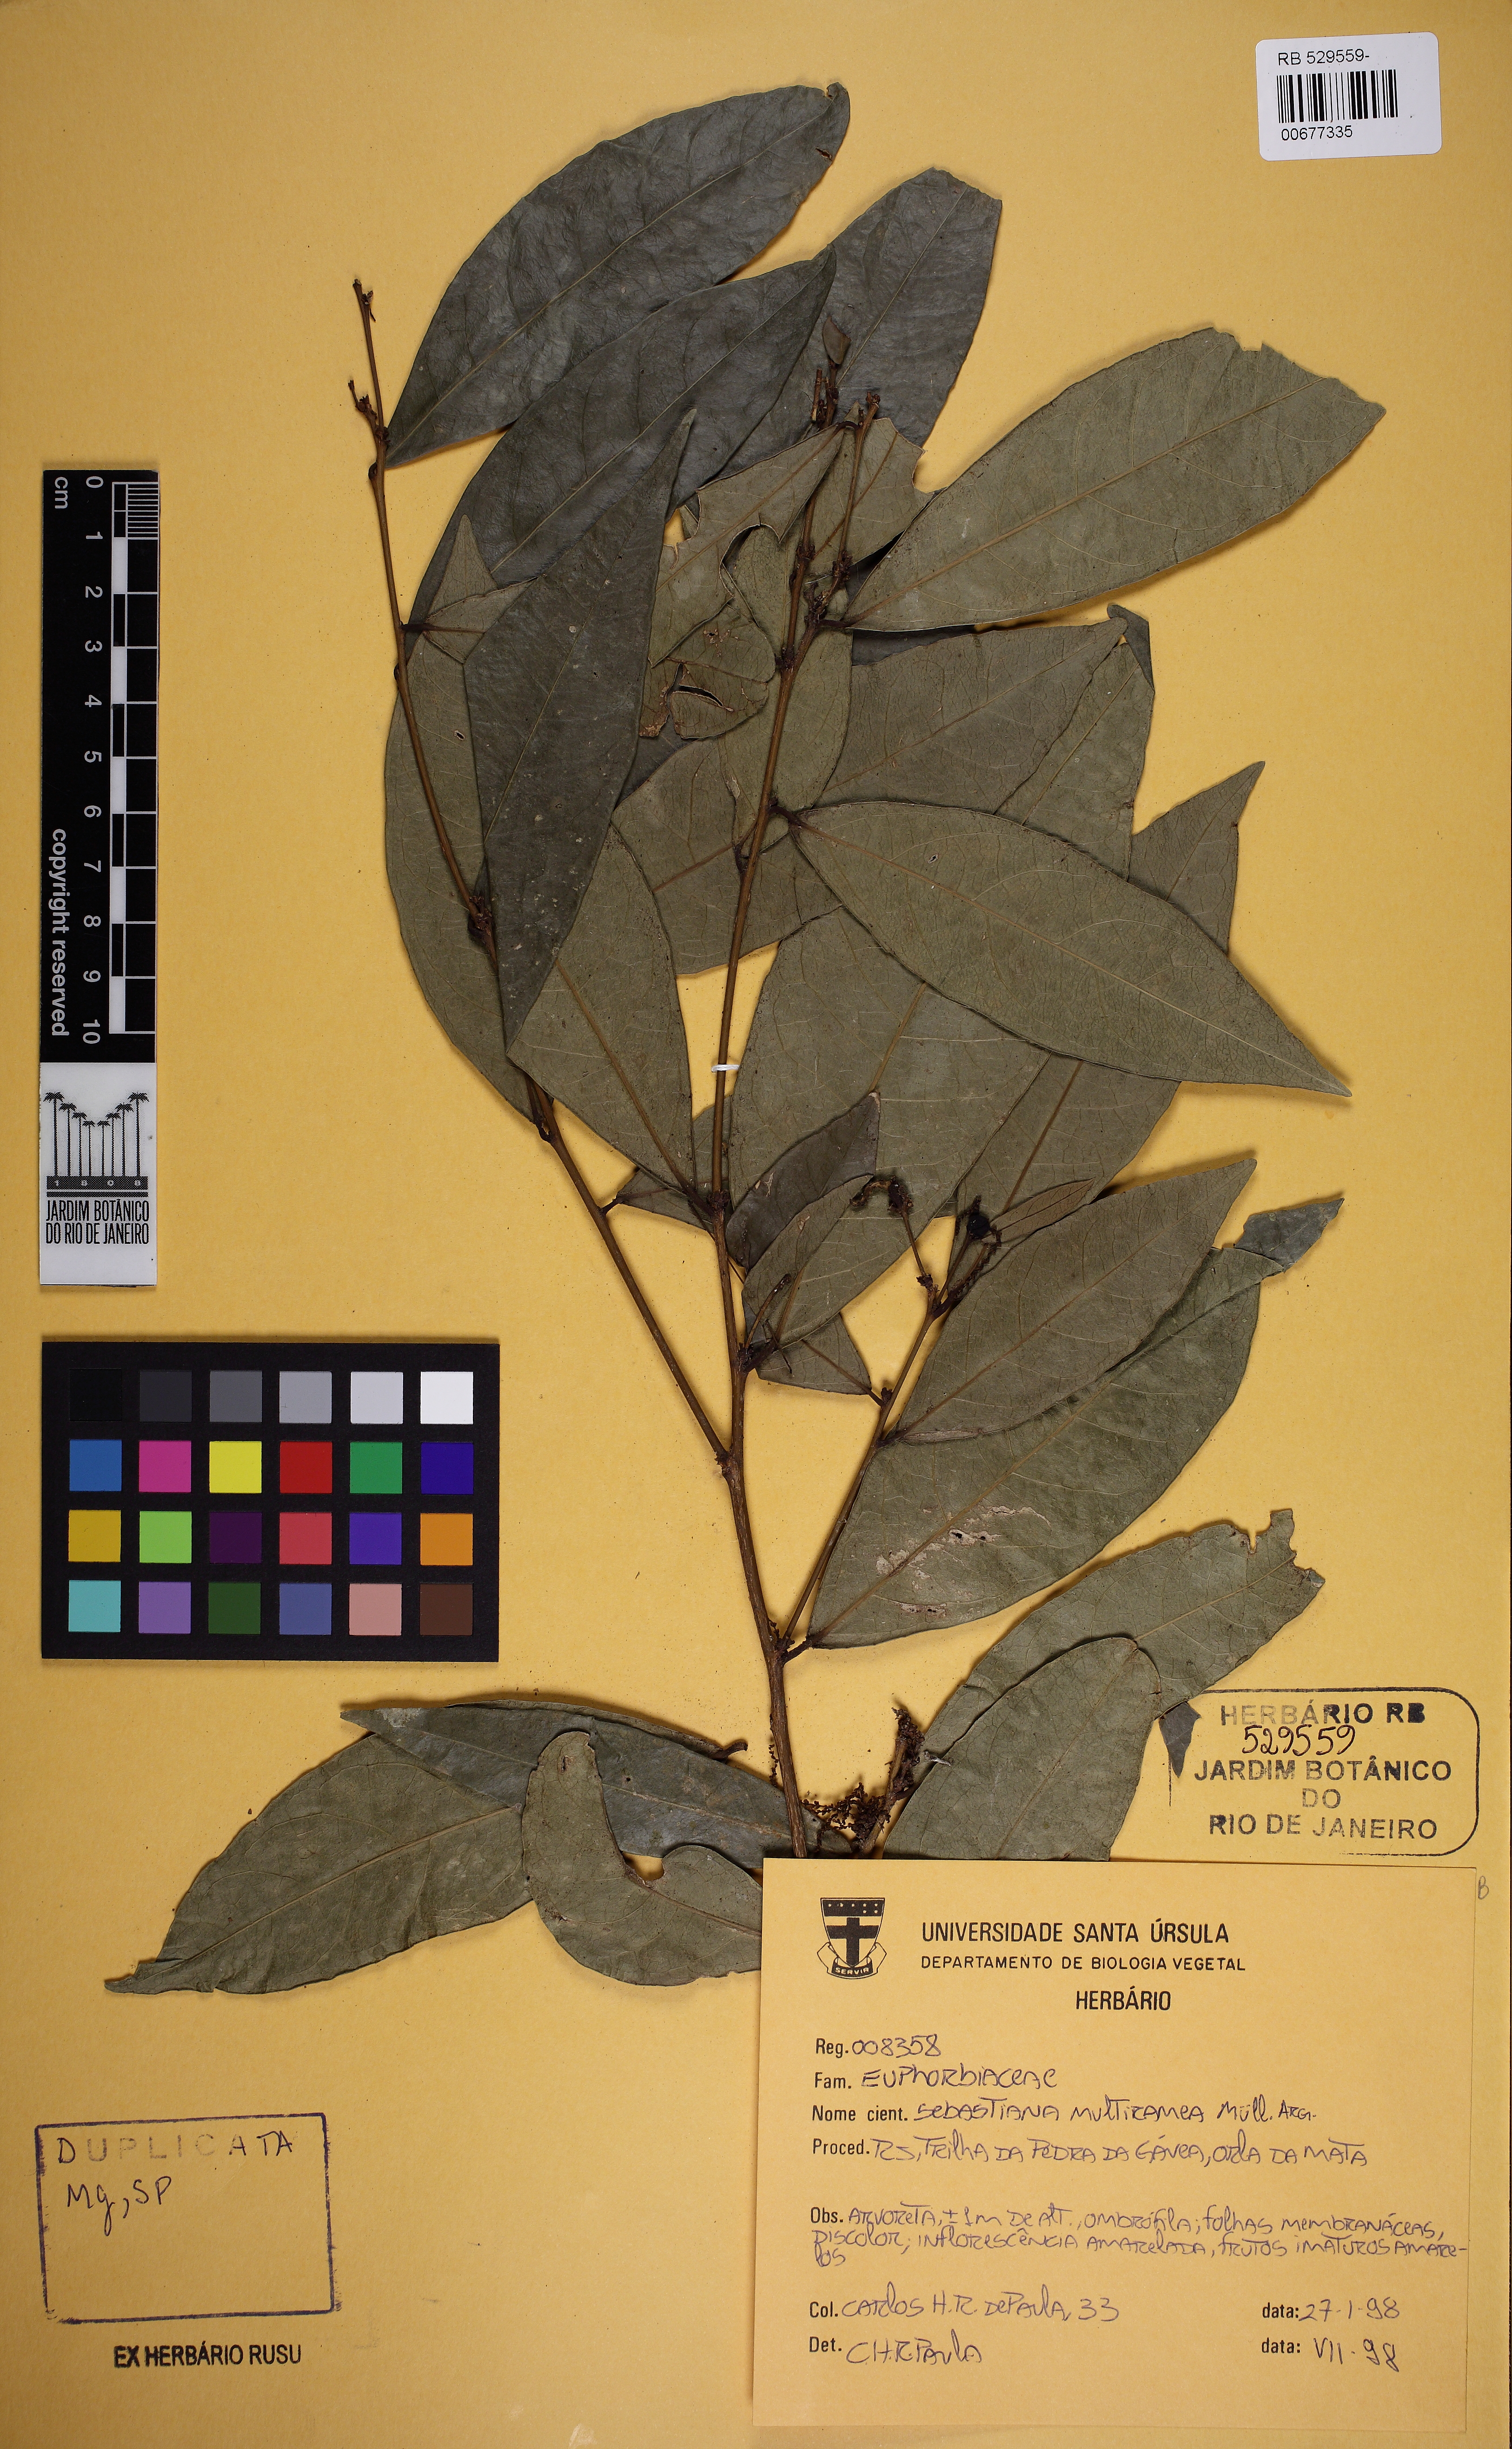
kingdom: Plantae
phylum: Tracheophyta
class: Magnoliopsida
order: Malpighiales
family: Euphorbiaceae
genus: Gymnanthes
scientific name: Gymnanthes glabrata
